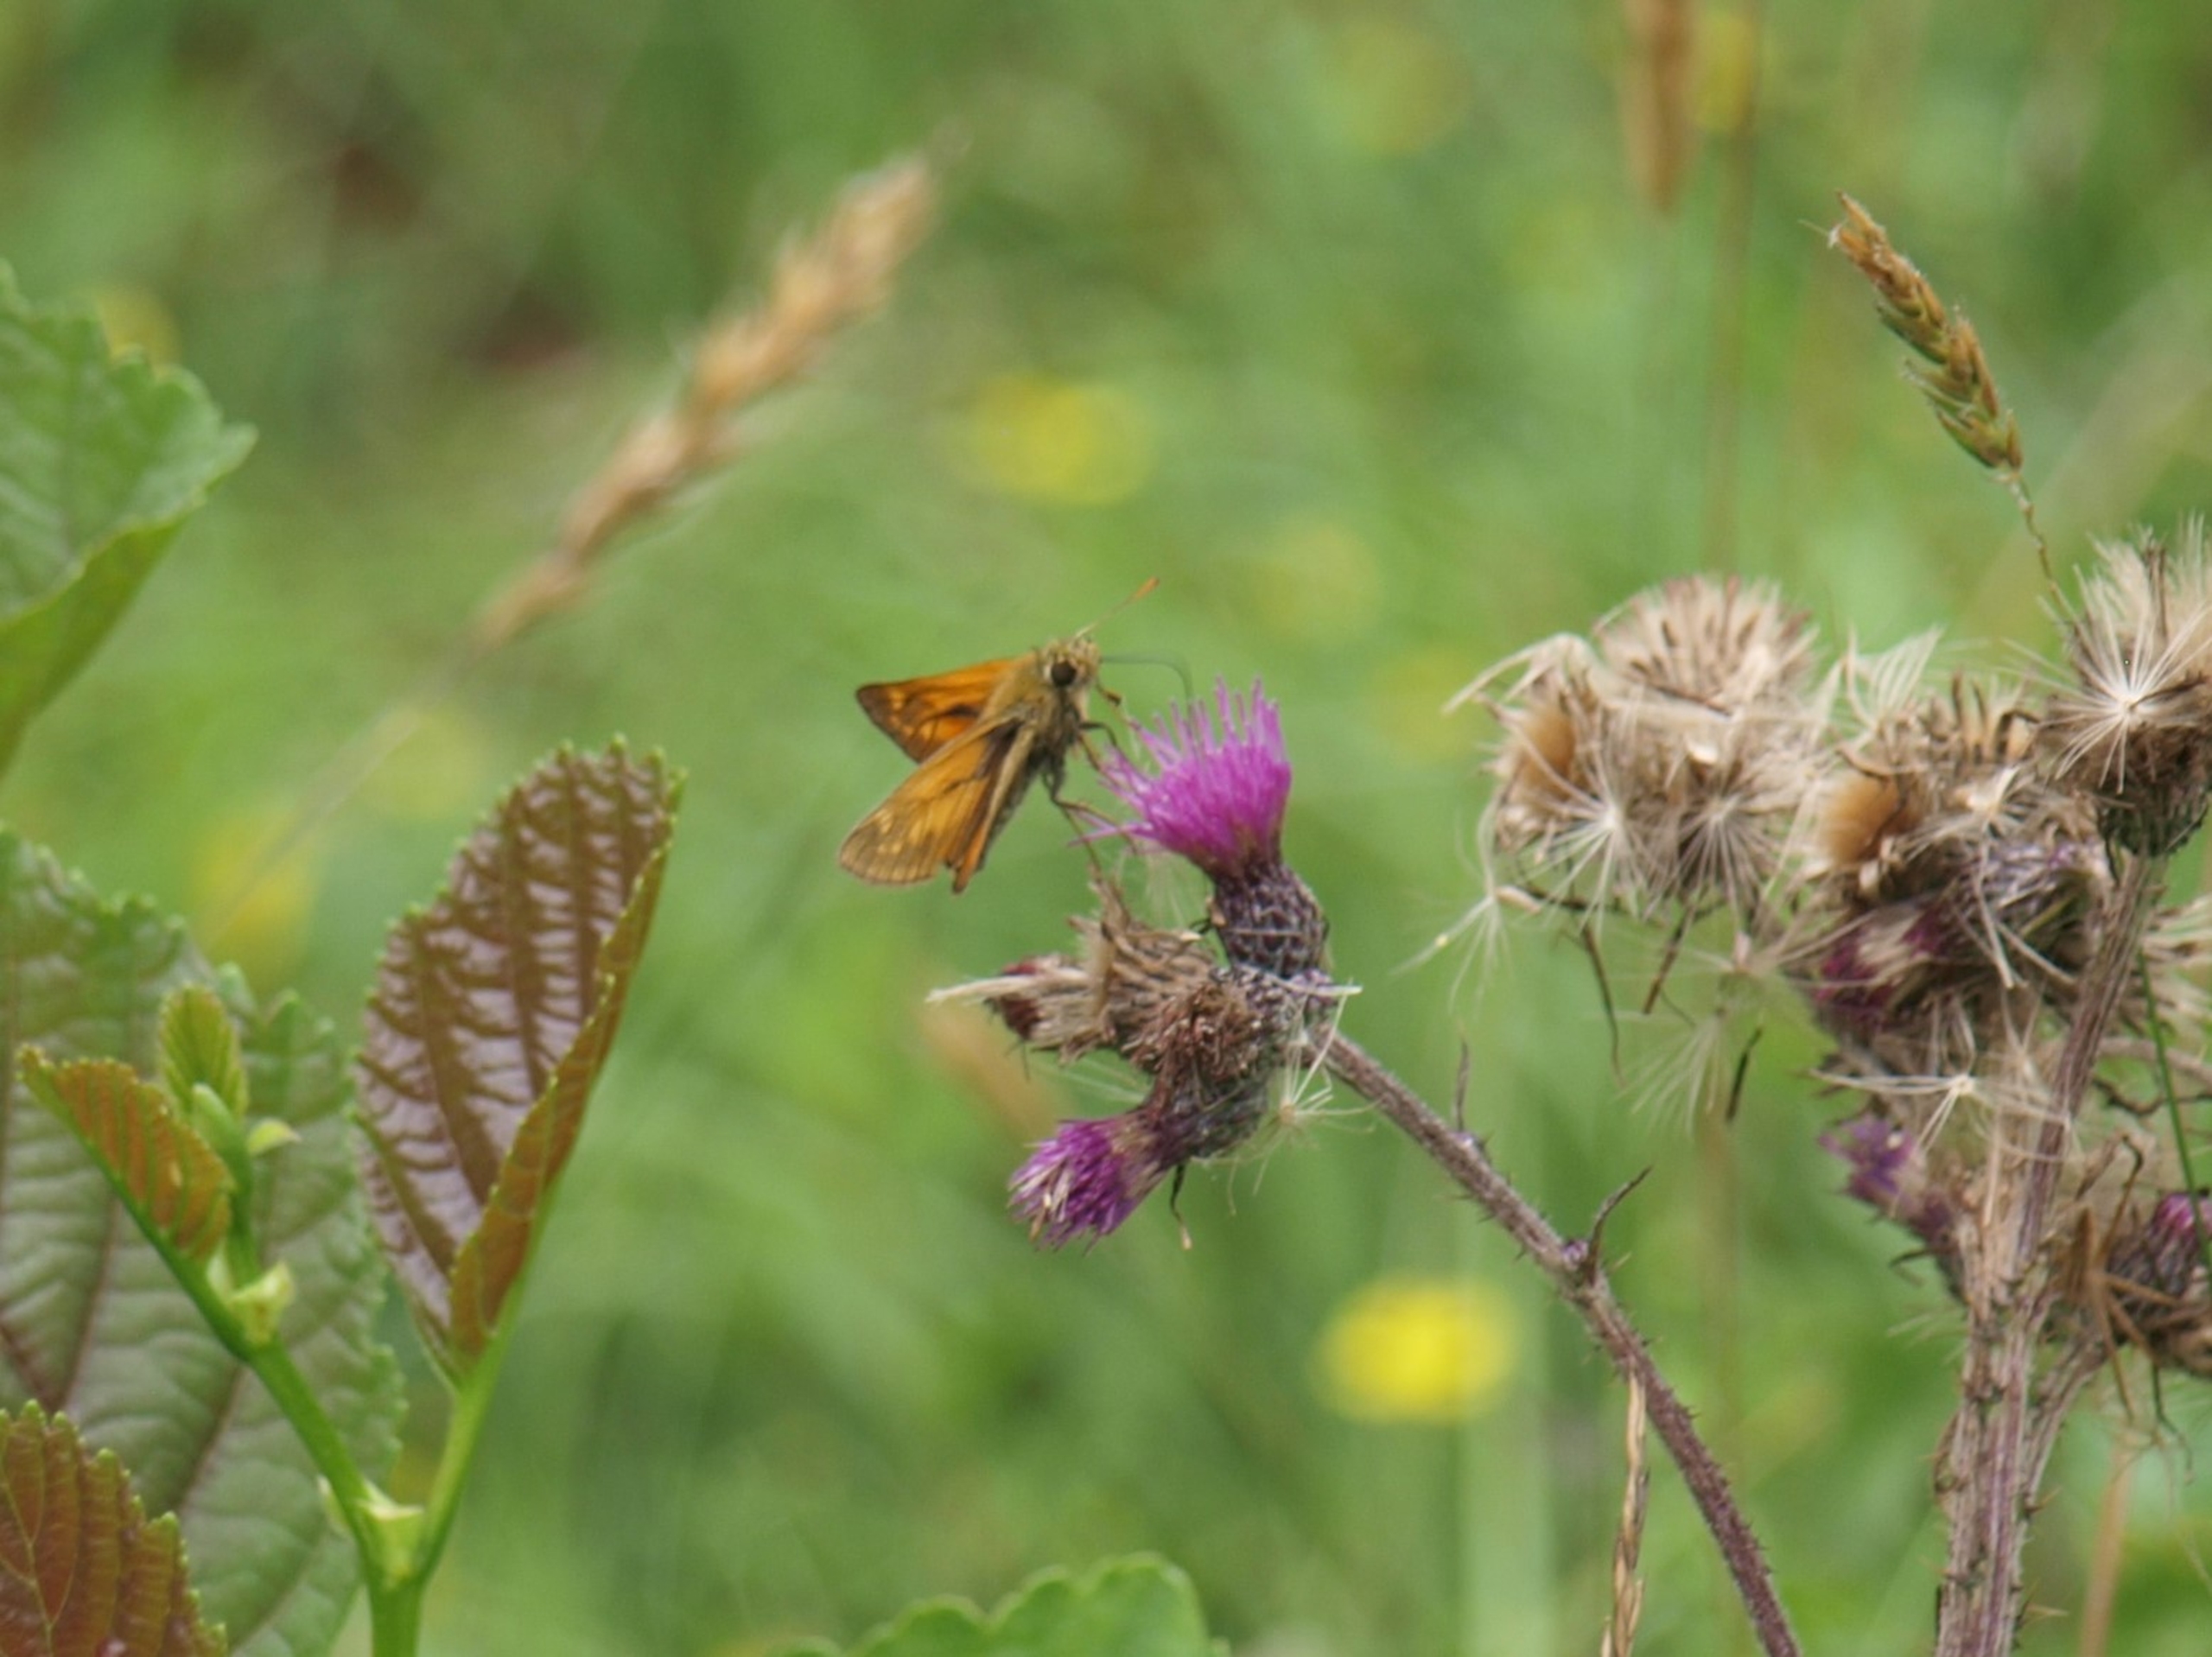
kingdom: Animalia
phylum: Arthropoda
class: Insecta
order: Lepidoptera
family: Hesperiidae
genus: Ochlodes
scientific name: Ochlodes venata
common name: Stor bredpande
